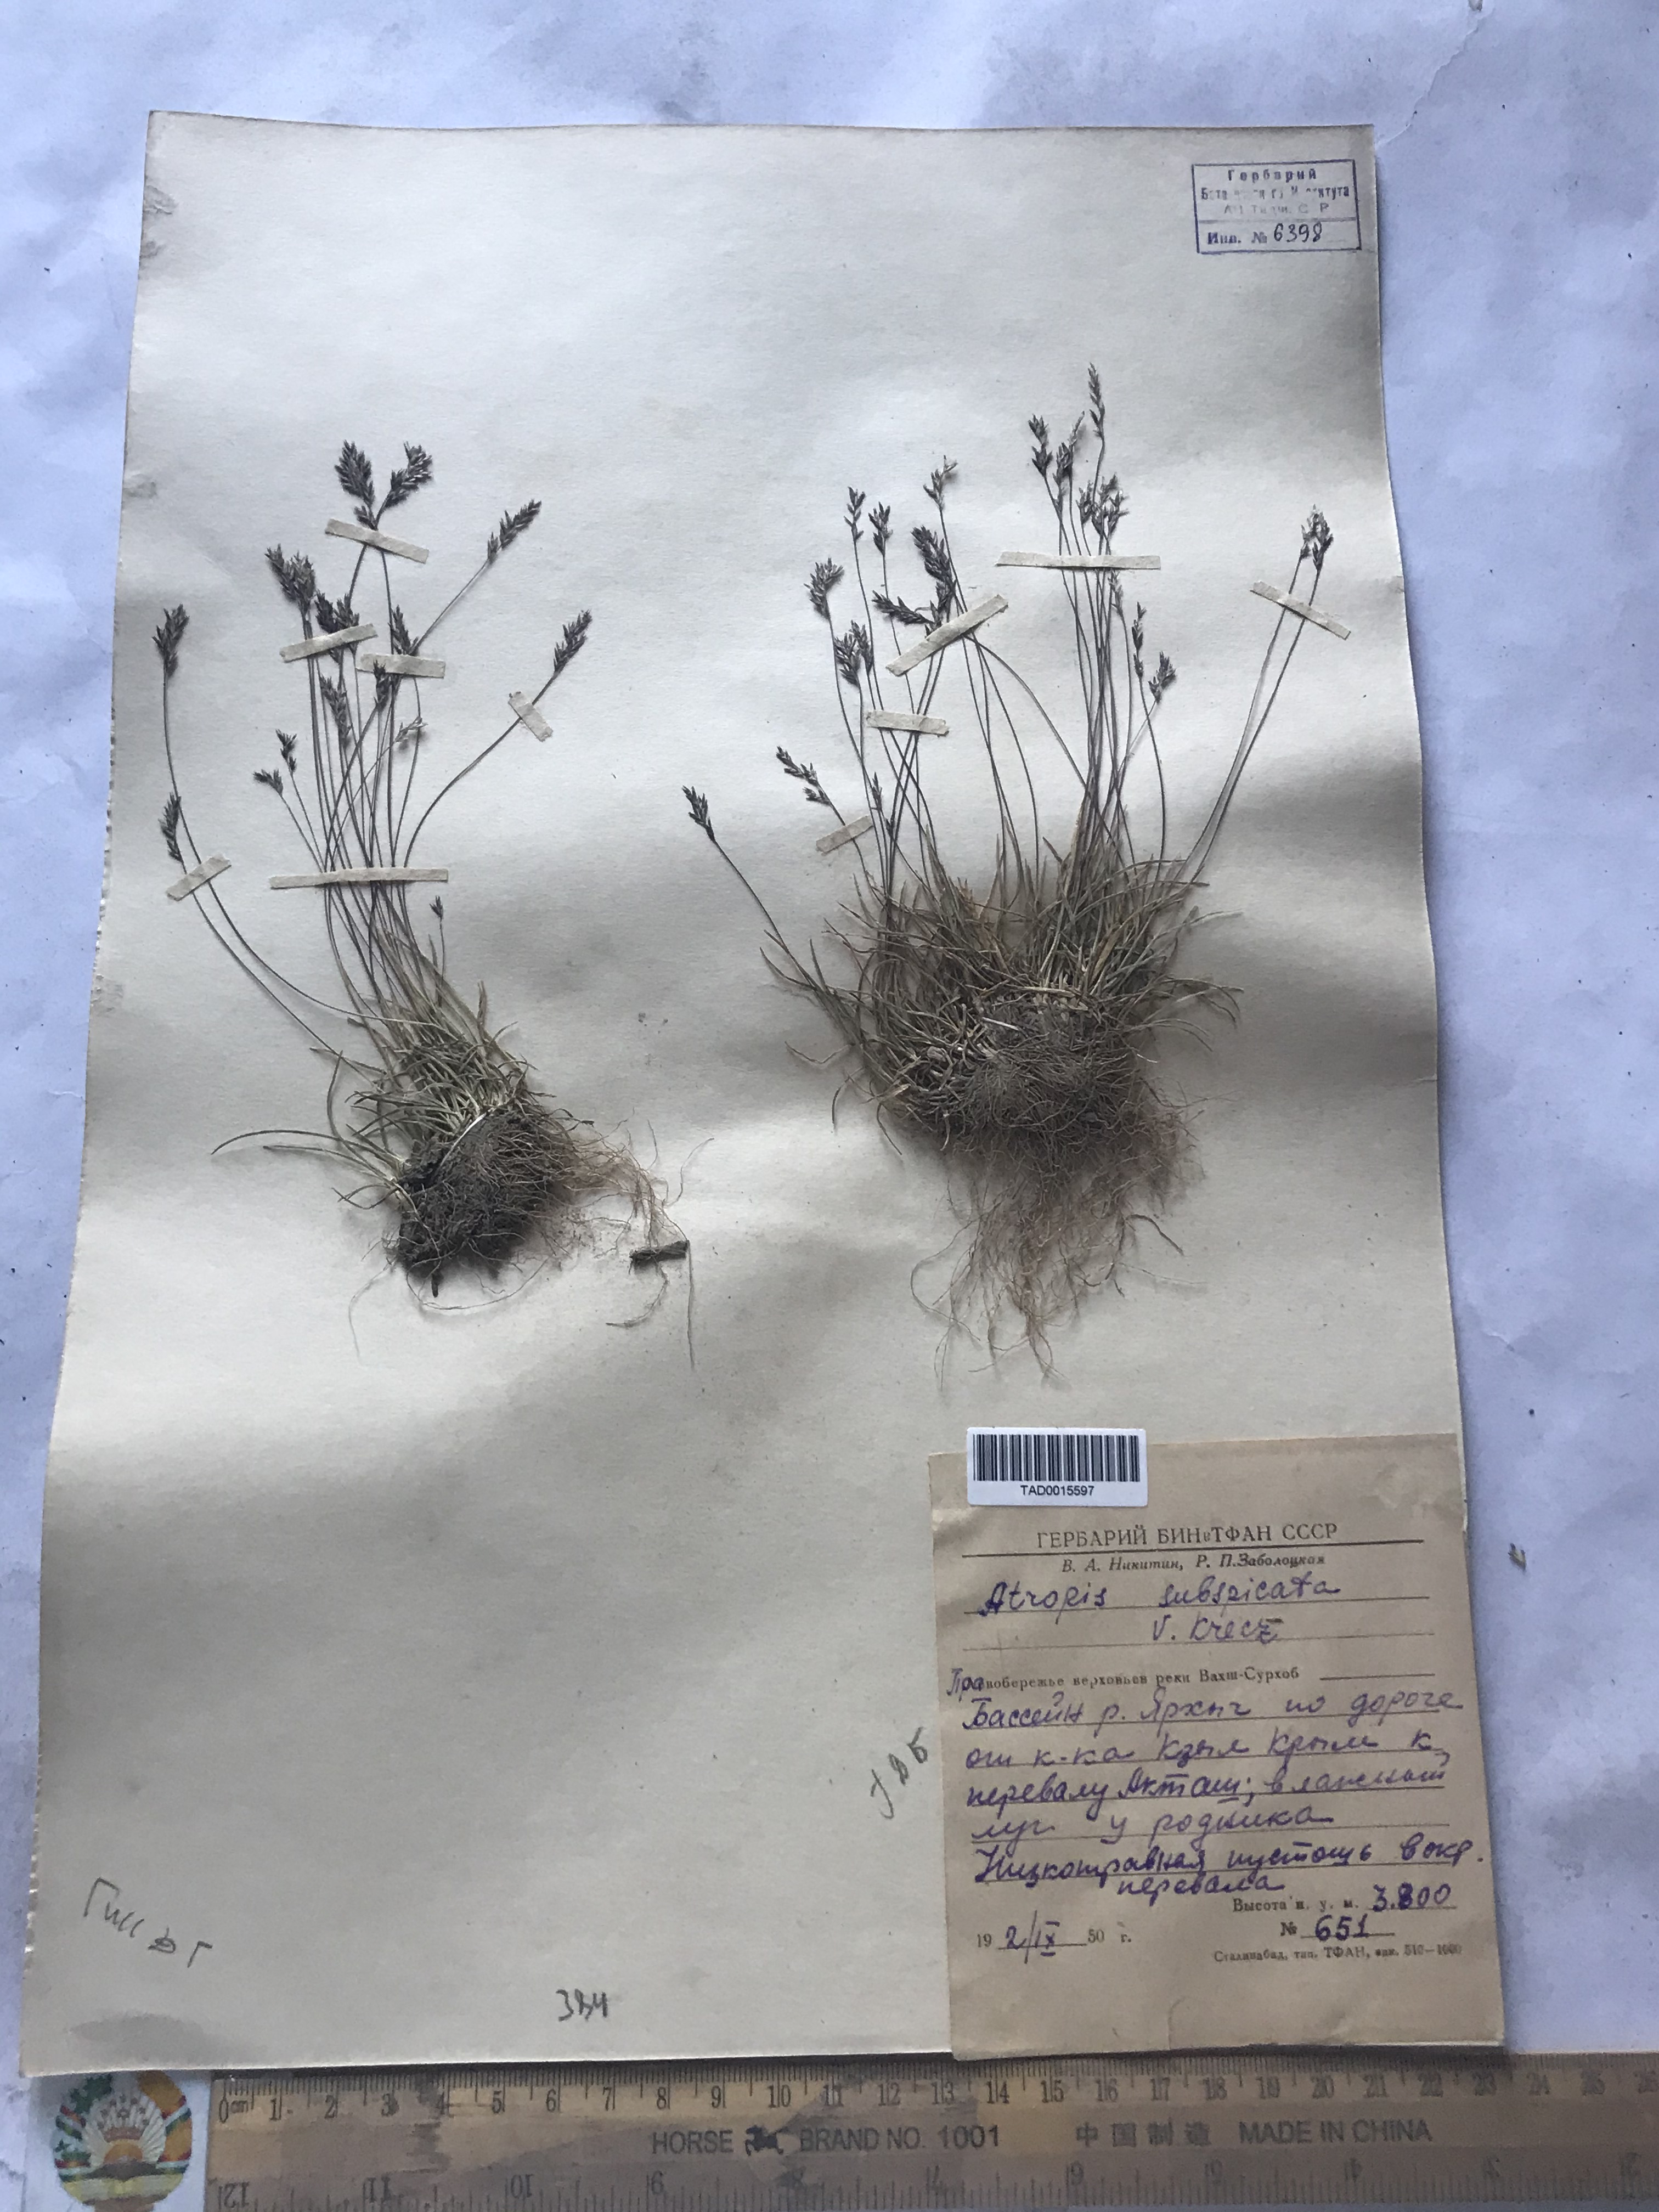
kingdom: Plantae
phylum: Tracheophyta
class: Liliopsida
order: Poales
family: Poaceae
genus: Puccinellia
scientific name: Puccinellia subspicata
